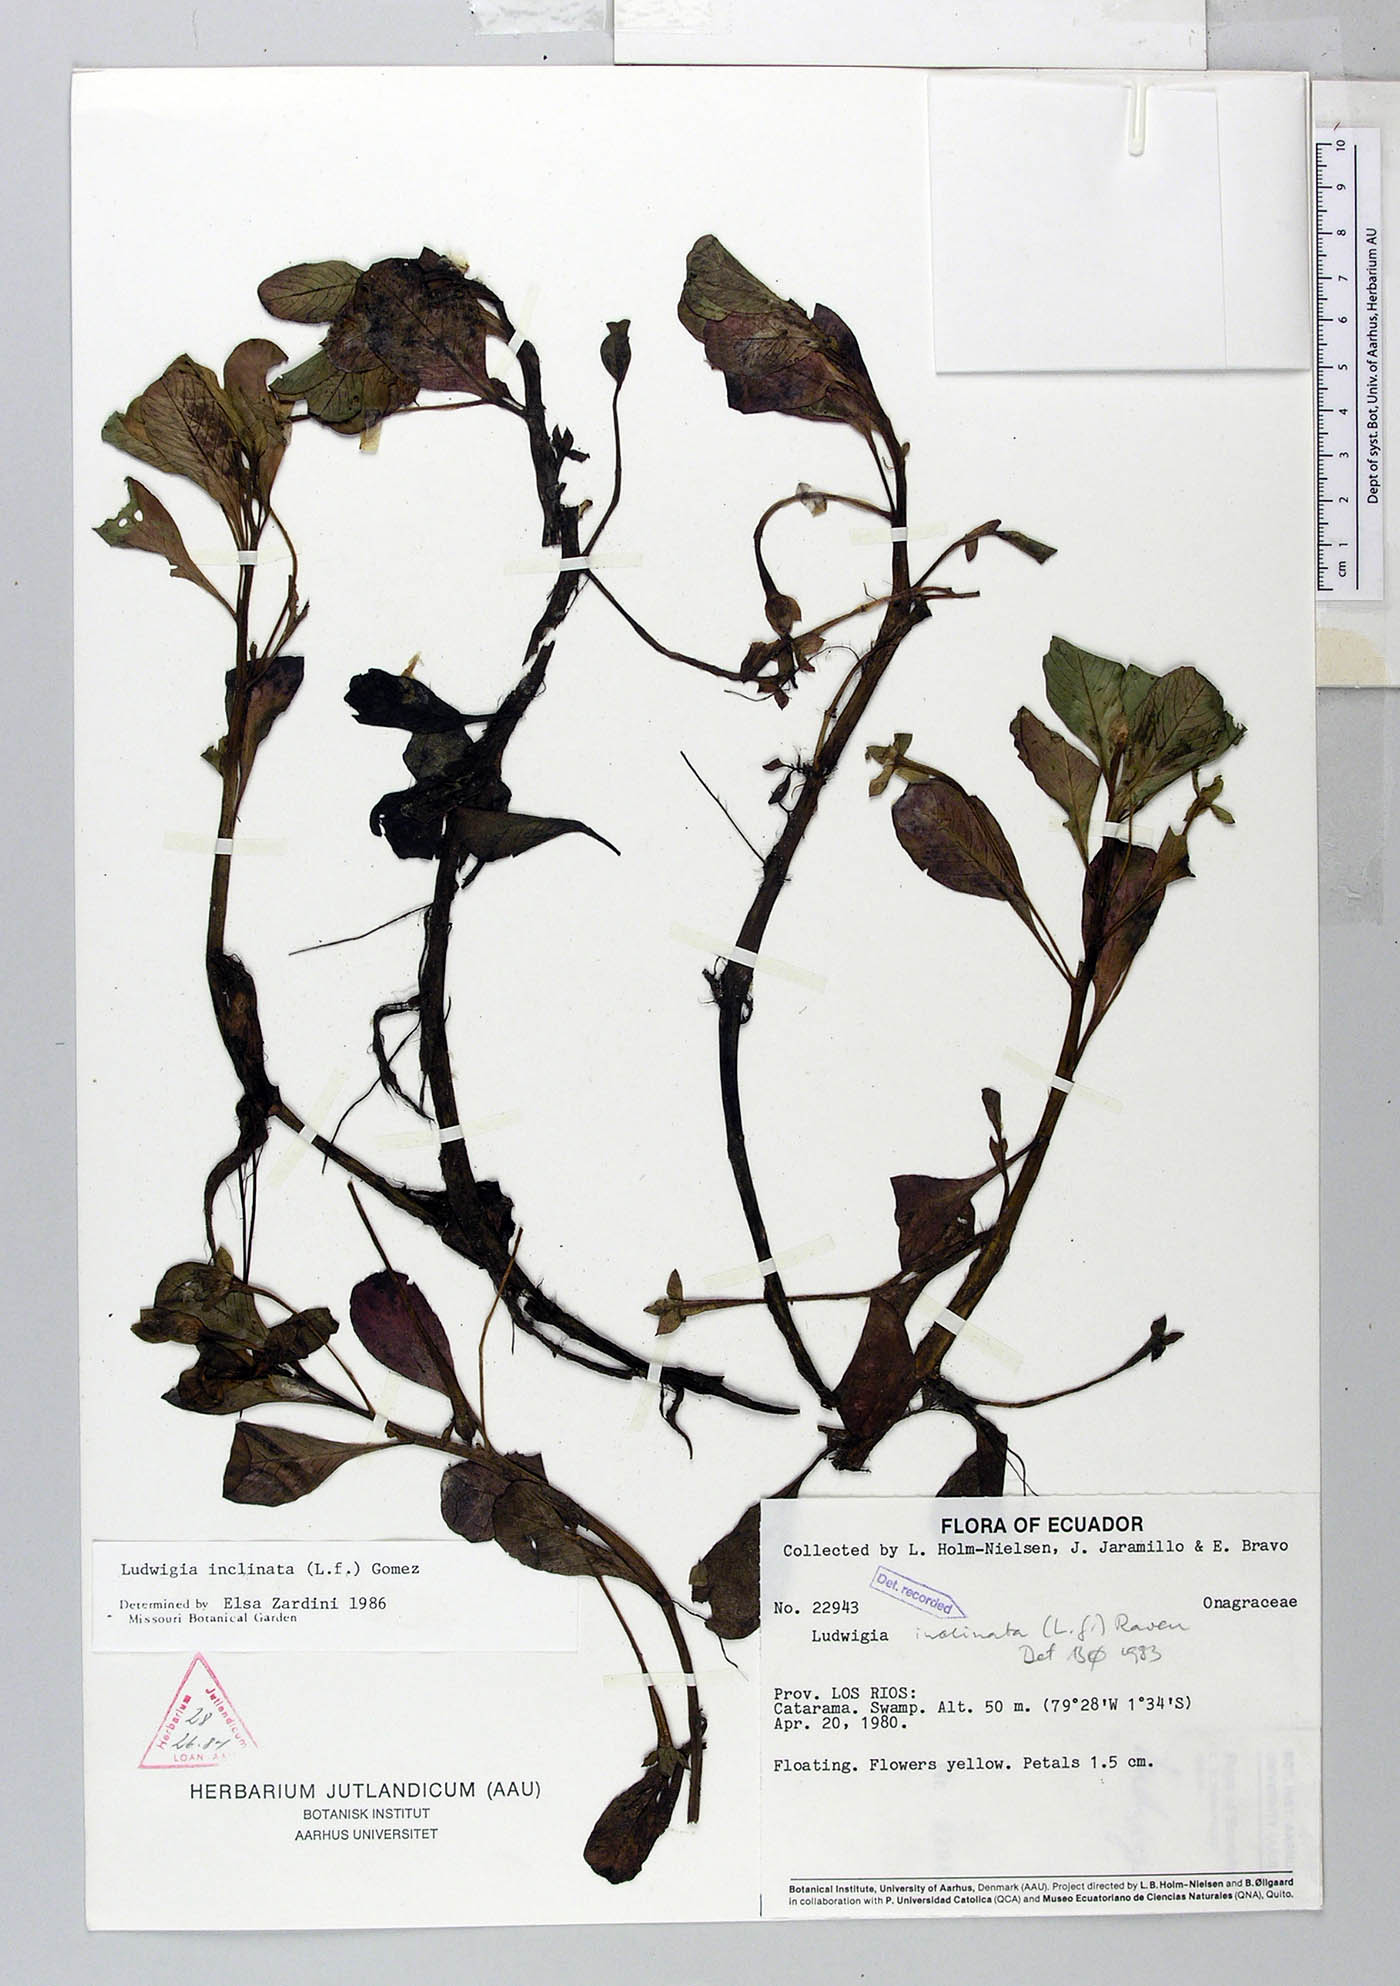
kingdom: Plantae
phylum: Tracheophyta
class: Magnoliopsida
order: Myrtales
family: Onagraceae
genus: Ludwigia
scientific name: Ludwigia inclinata
